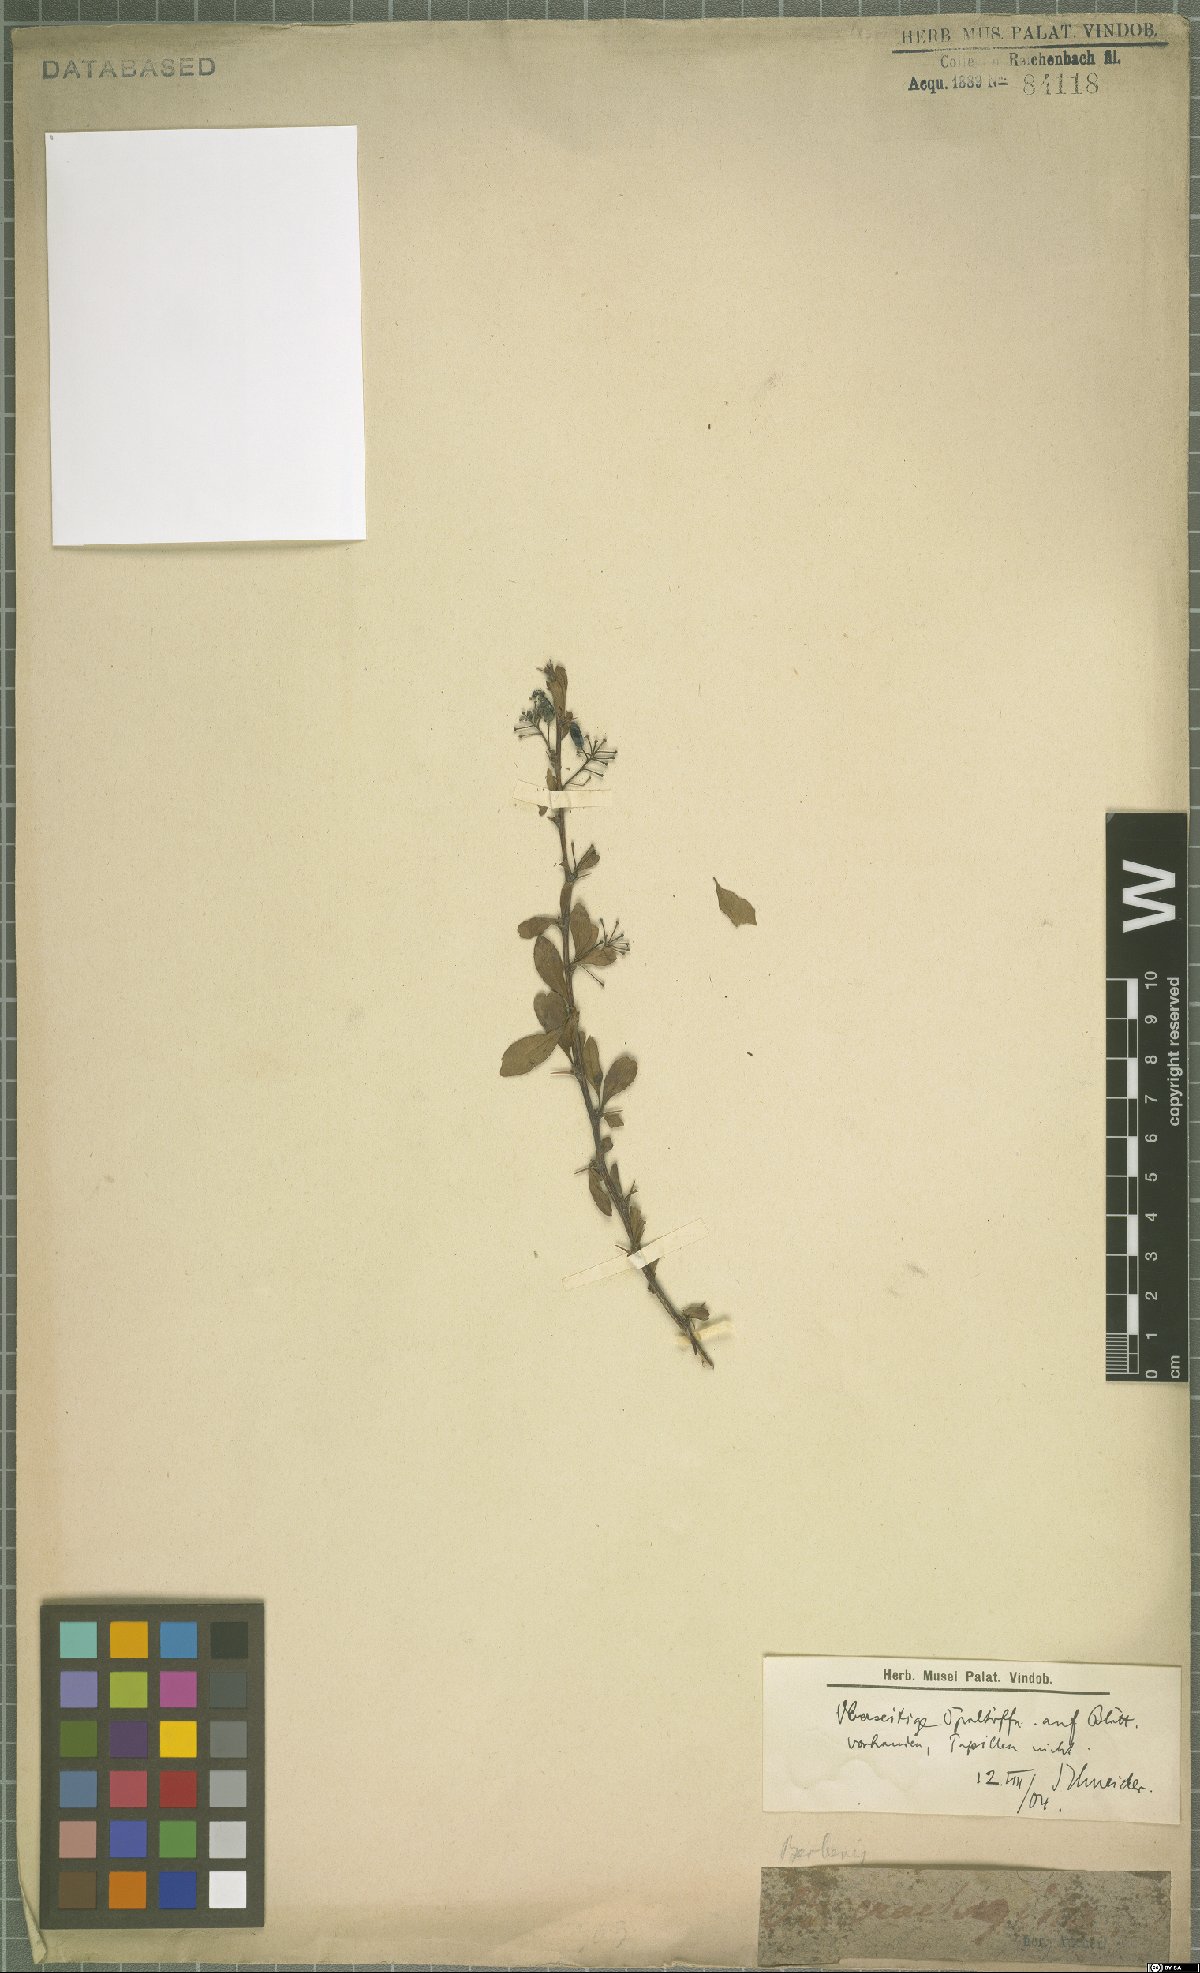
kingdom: Plantae
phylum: Tracheophyta
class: Magnoliopsida
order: Ranunculales
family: Berberidaceae
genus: Berberis
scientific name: Berberis crataegina
